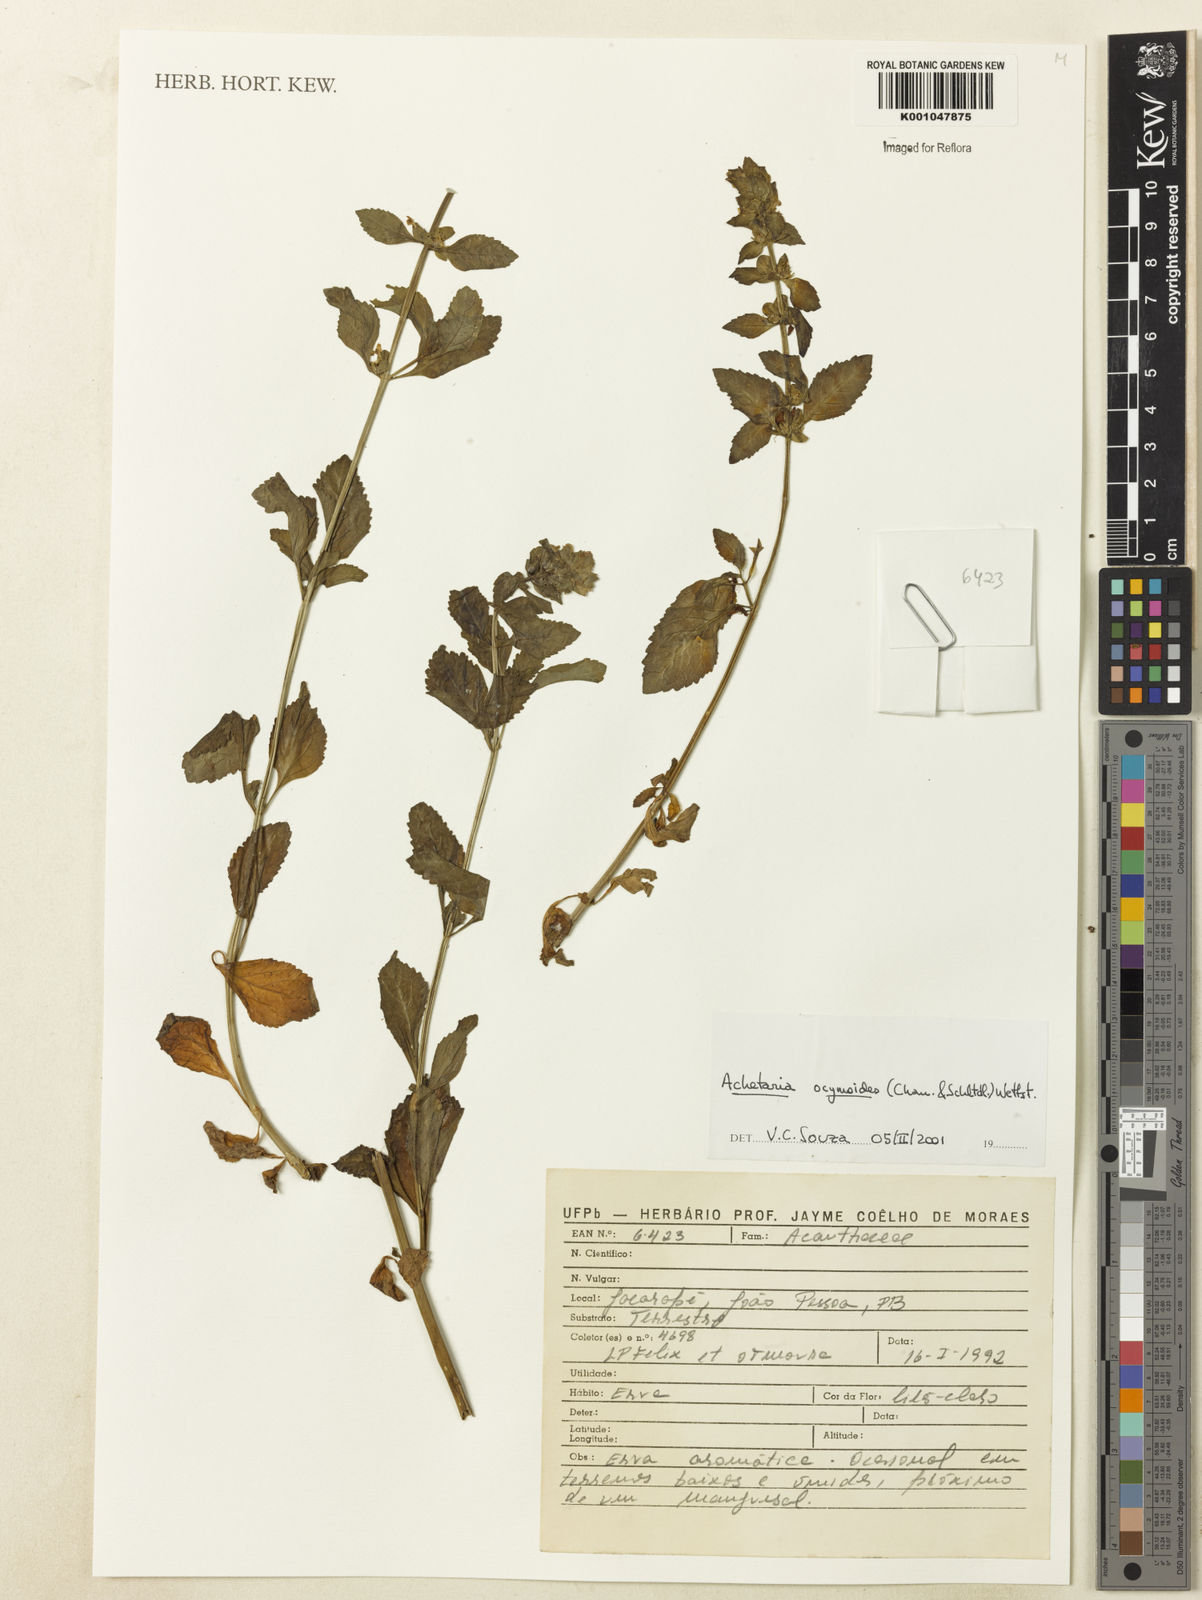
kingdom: Plantae
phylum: Tracheophyta
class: Magnoliopsida
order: Lamiales
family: Plantaginaceae
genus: Matourea
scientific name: Matourea ocymoides
